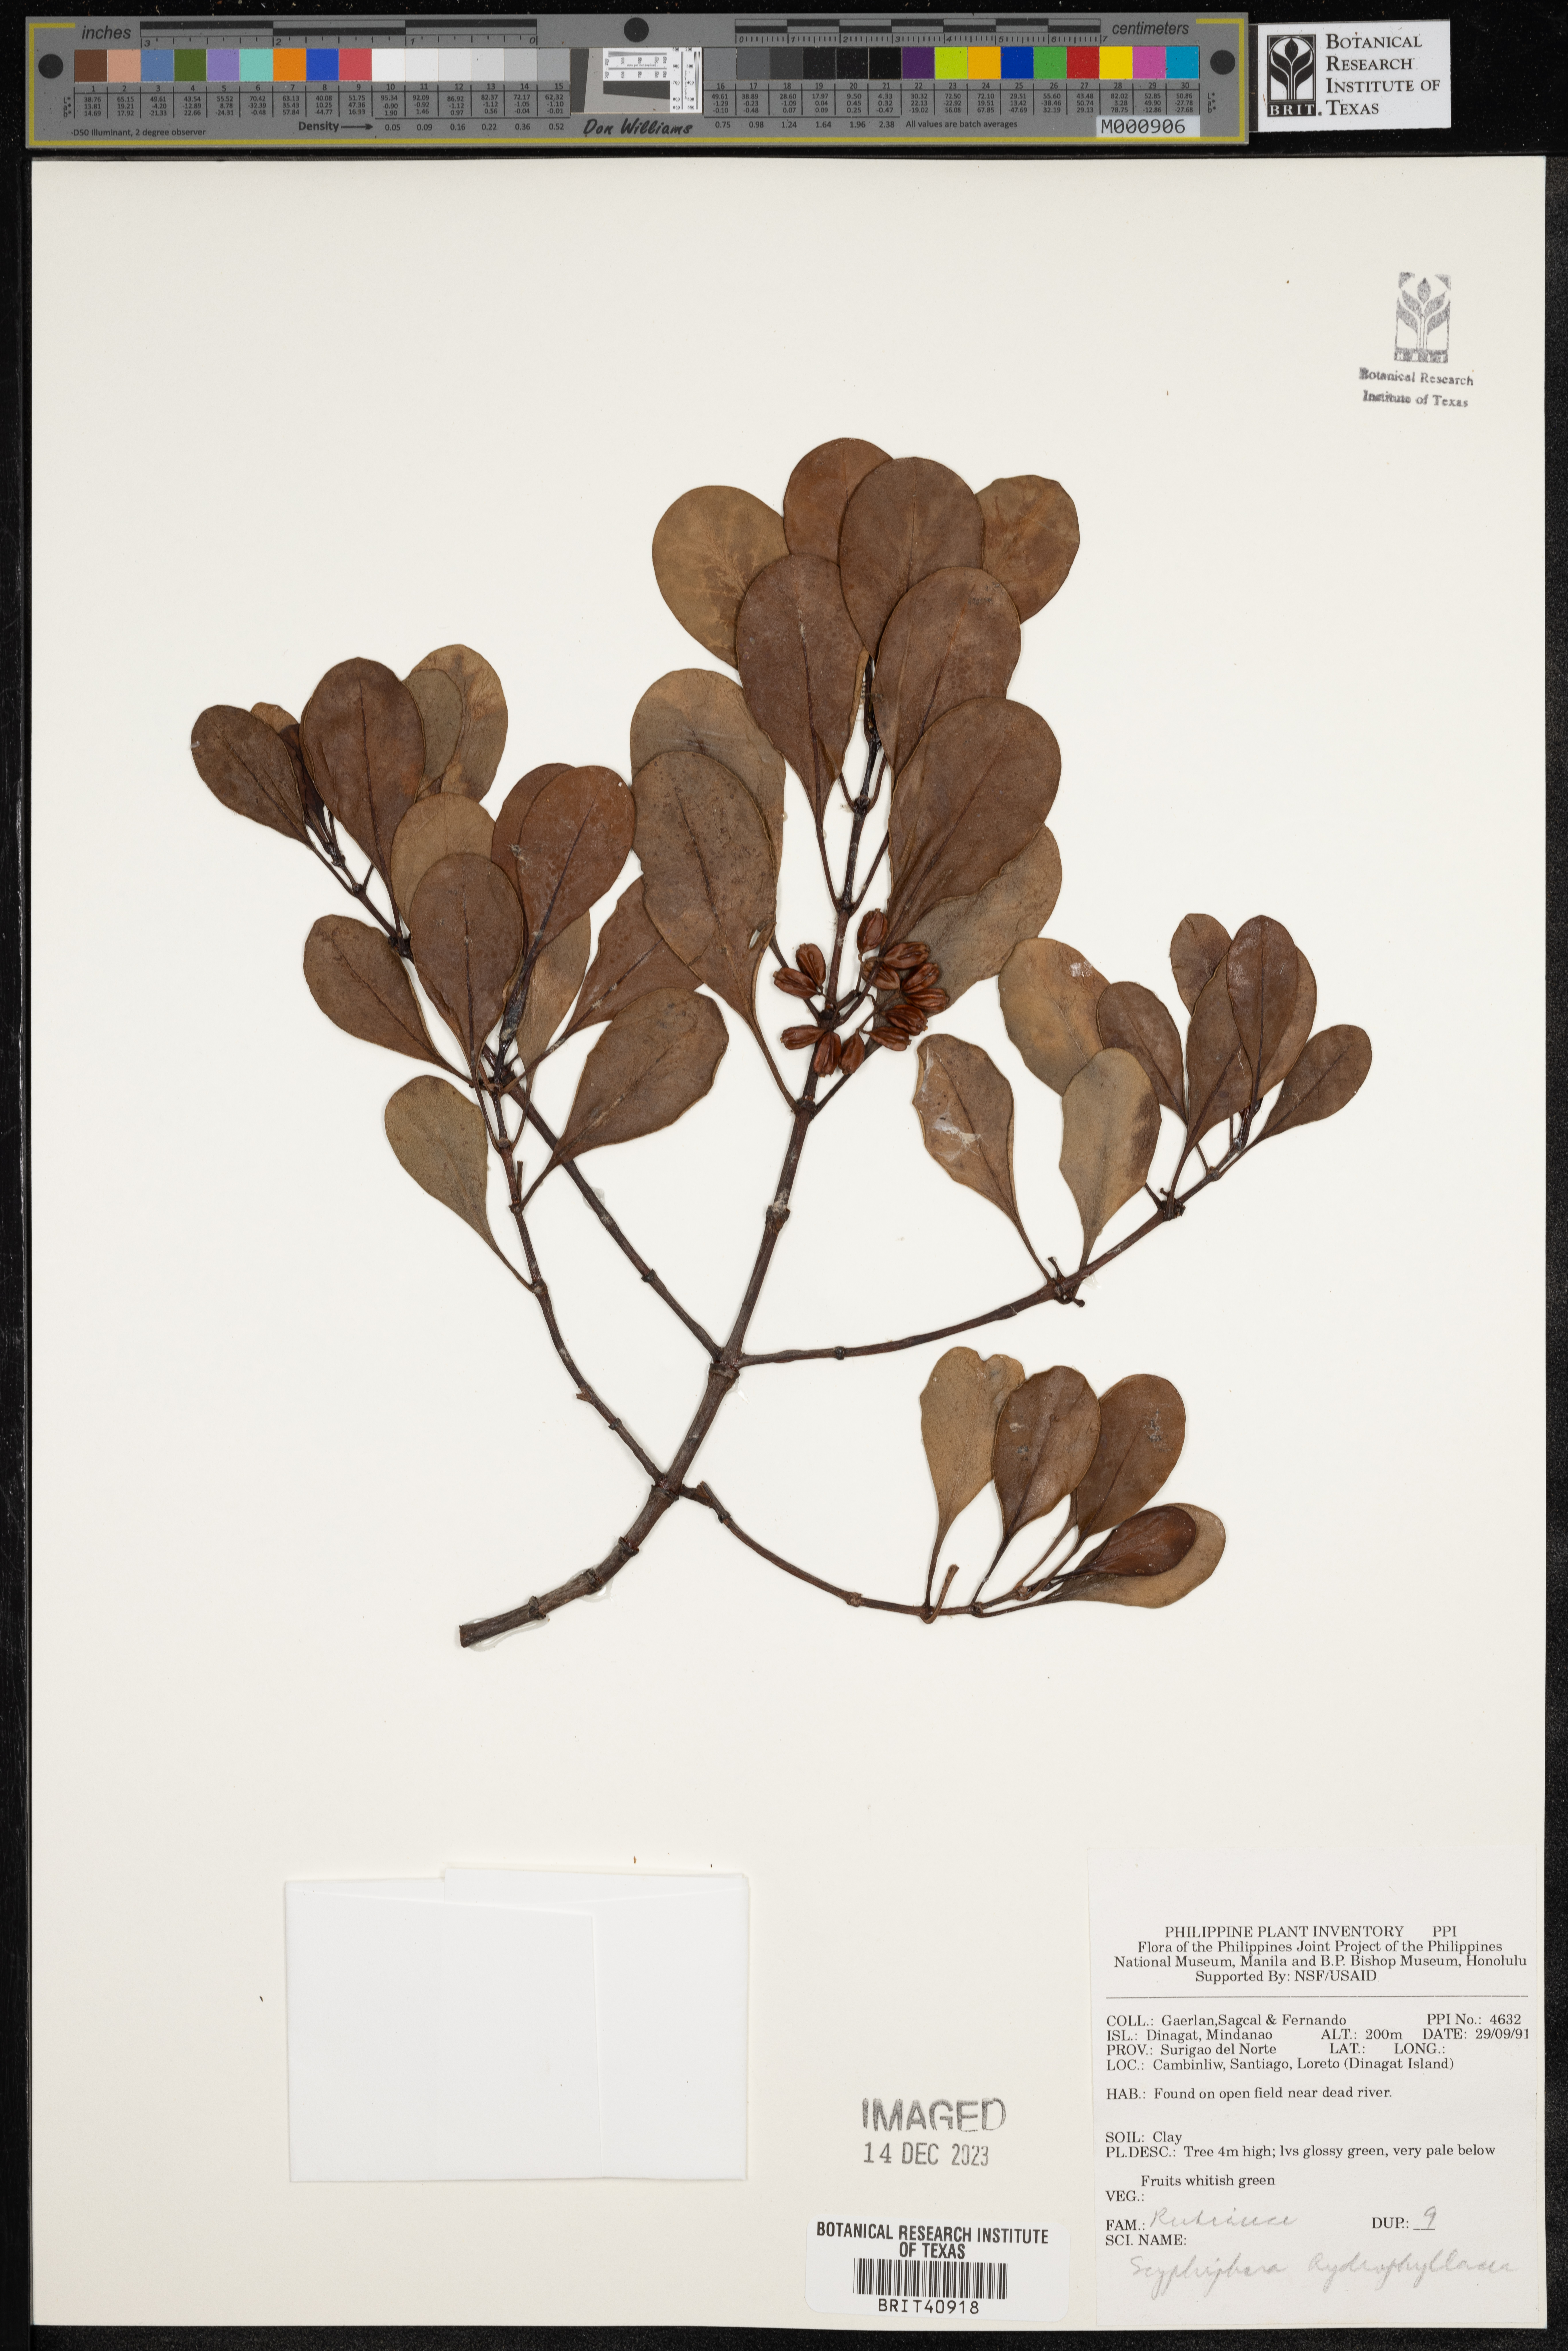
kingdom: Plantae
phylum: Tracheophyta
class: Magnoliopsida
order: Gentianales
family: Rubiaceae
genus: Scyphiphora
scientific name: Scyphiphora hydrophylacea
